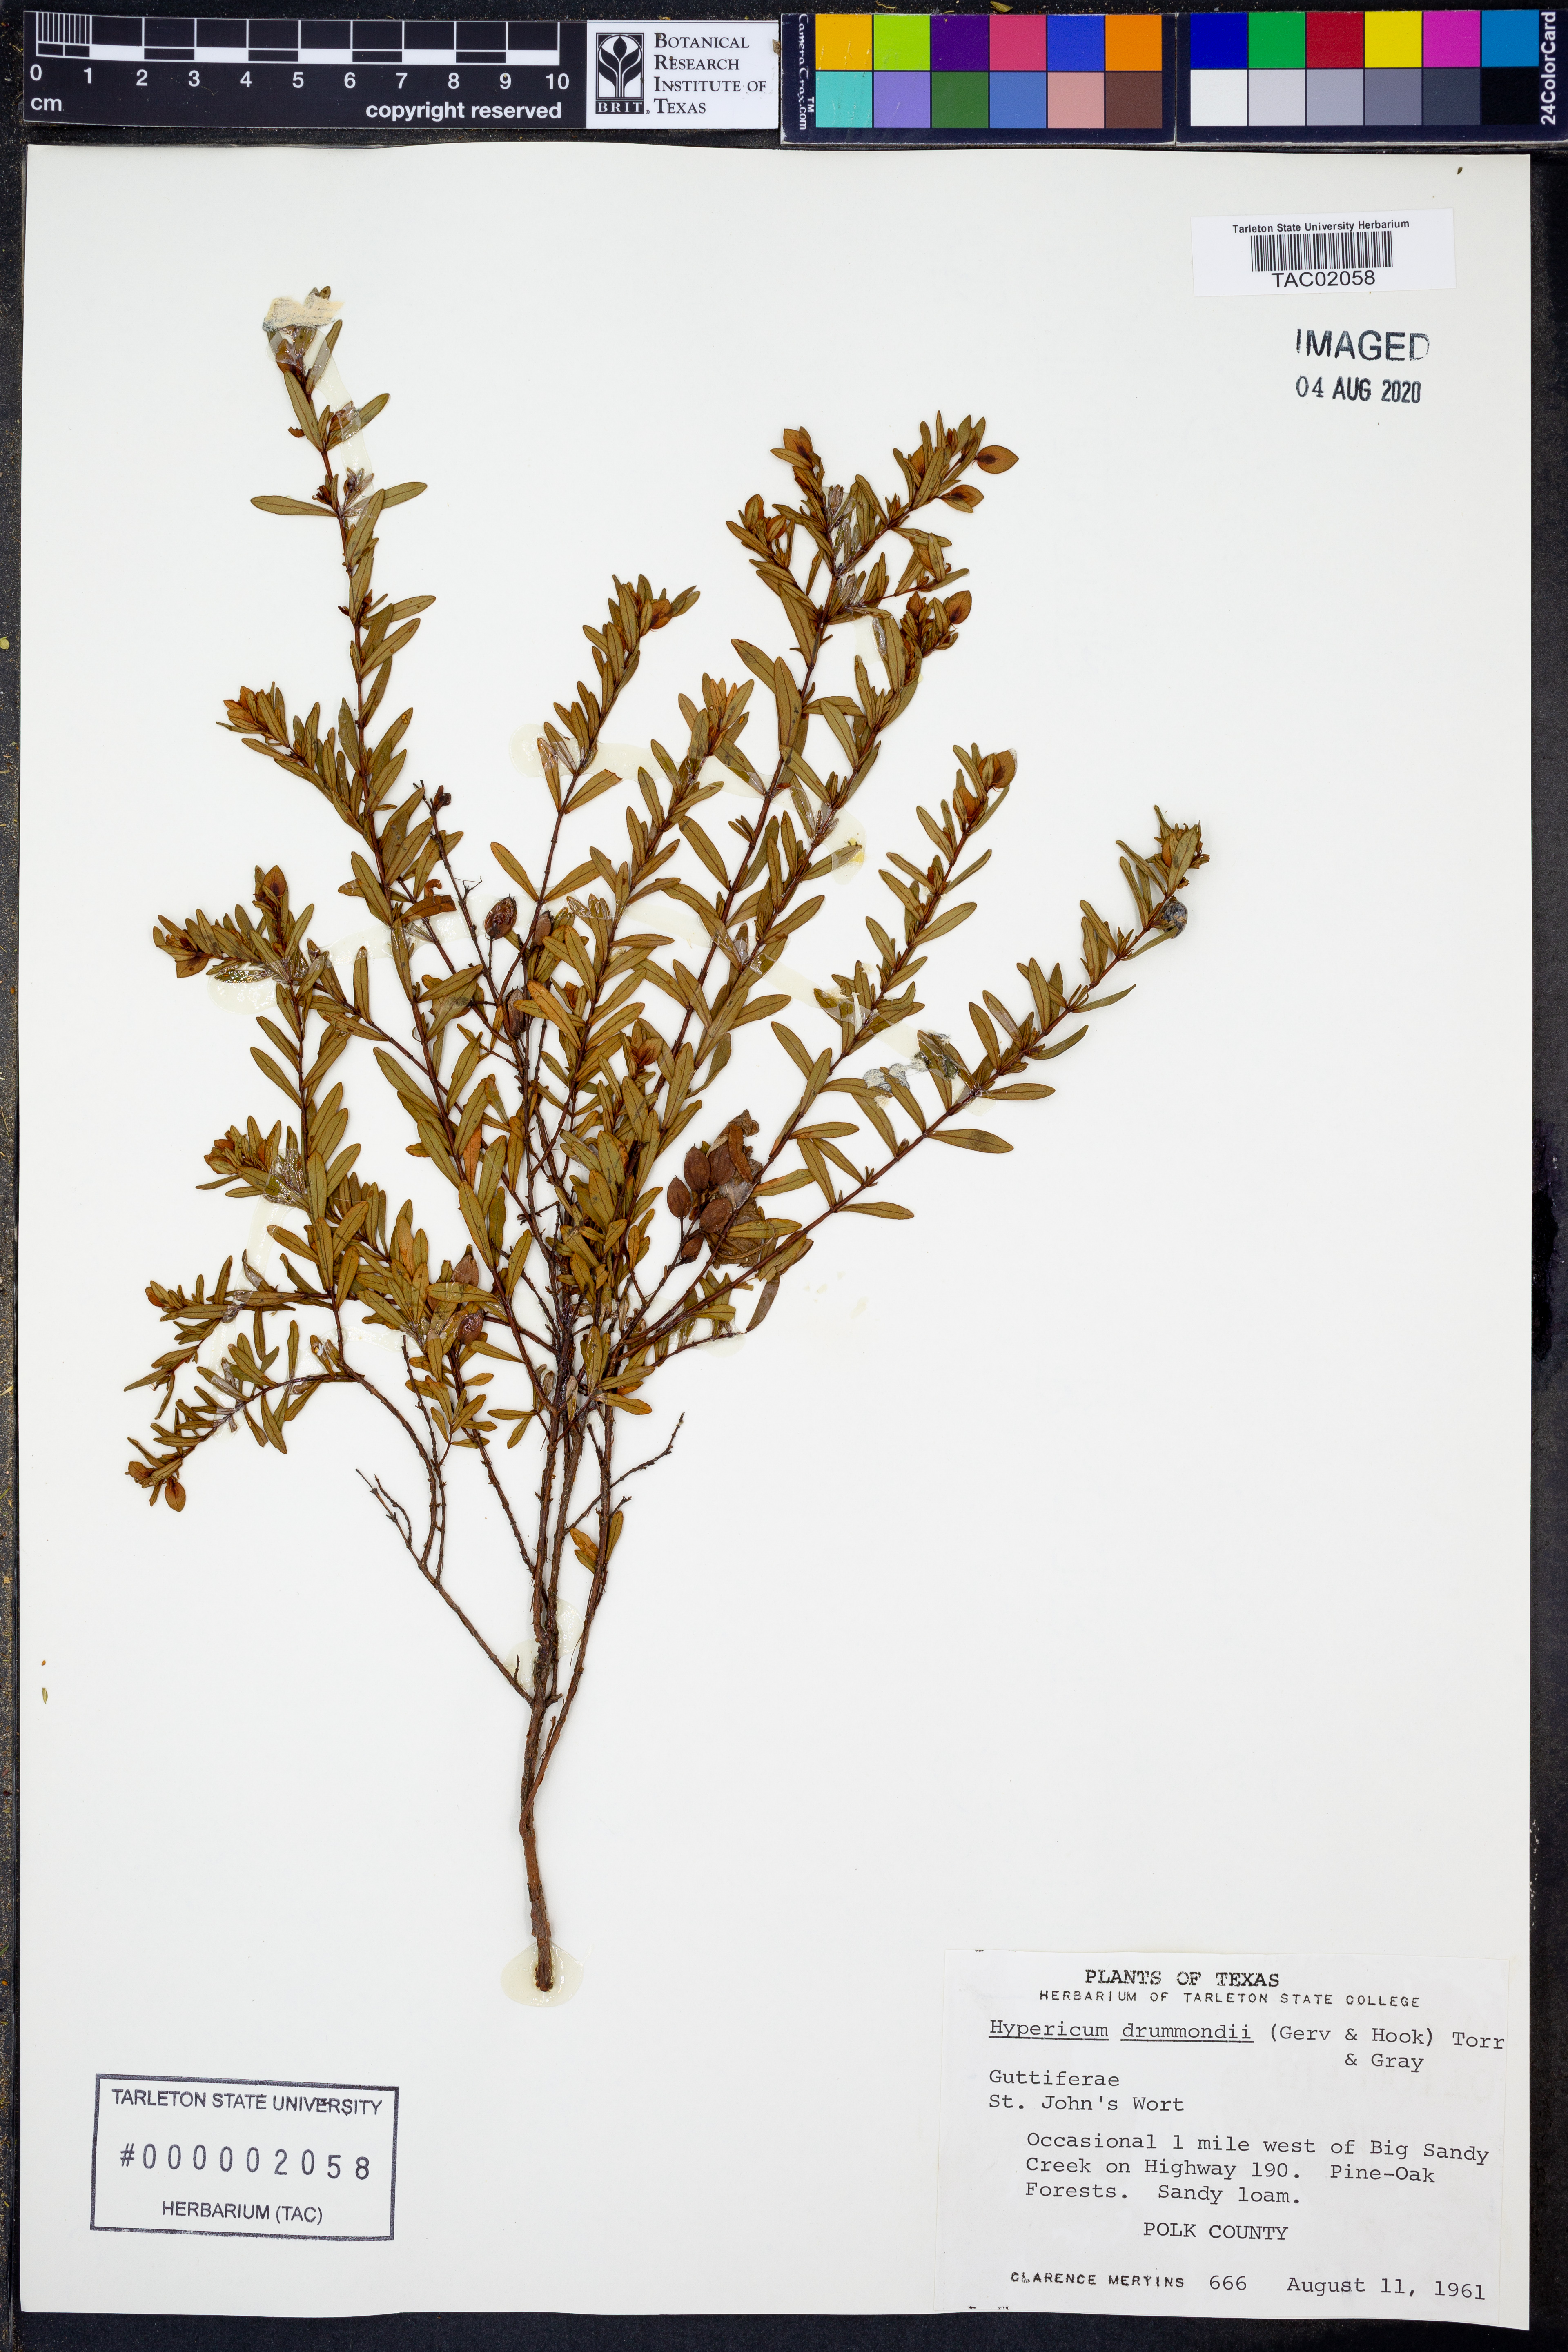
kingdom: Plantae
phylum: Tracheophyta
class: Magnoliopsida
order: Malpighiales
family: Hypericaceae
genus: Hypericum
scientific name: Hypericum drummondii
